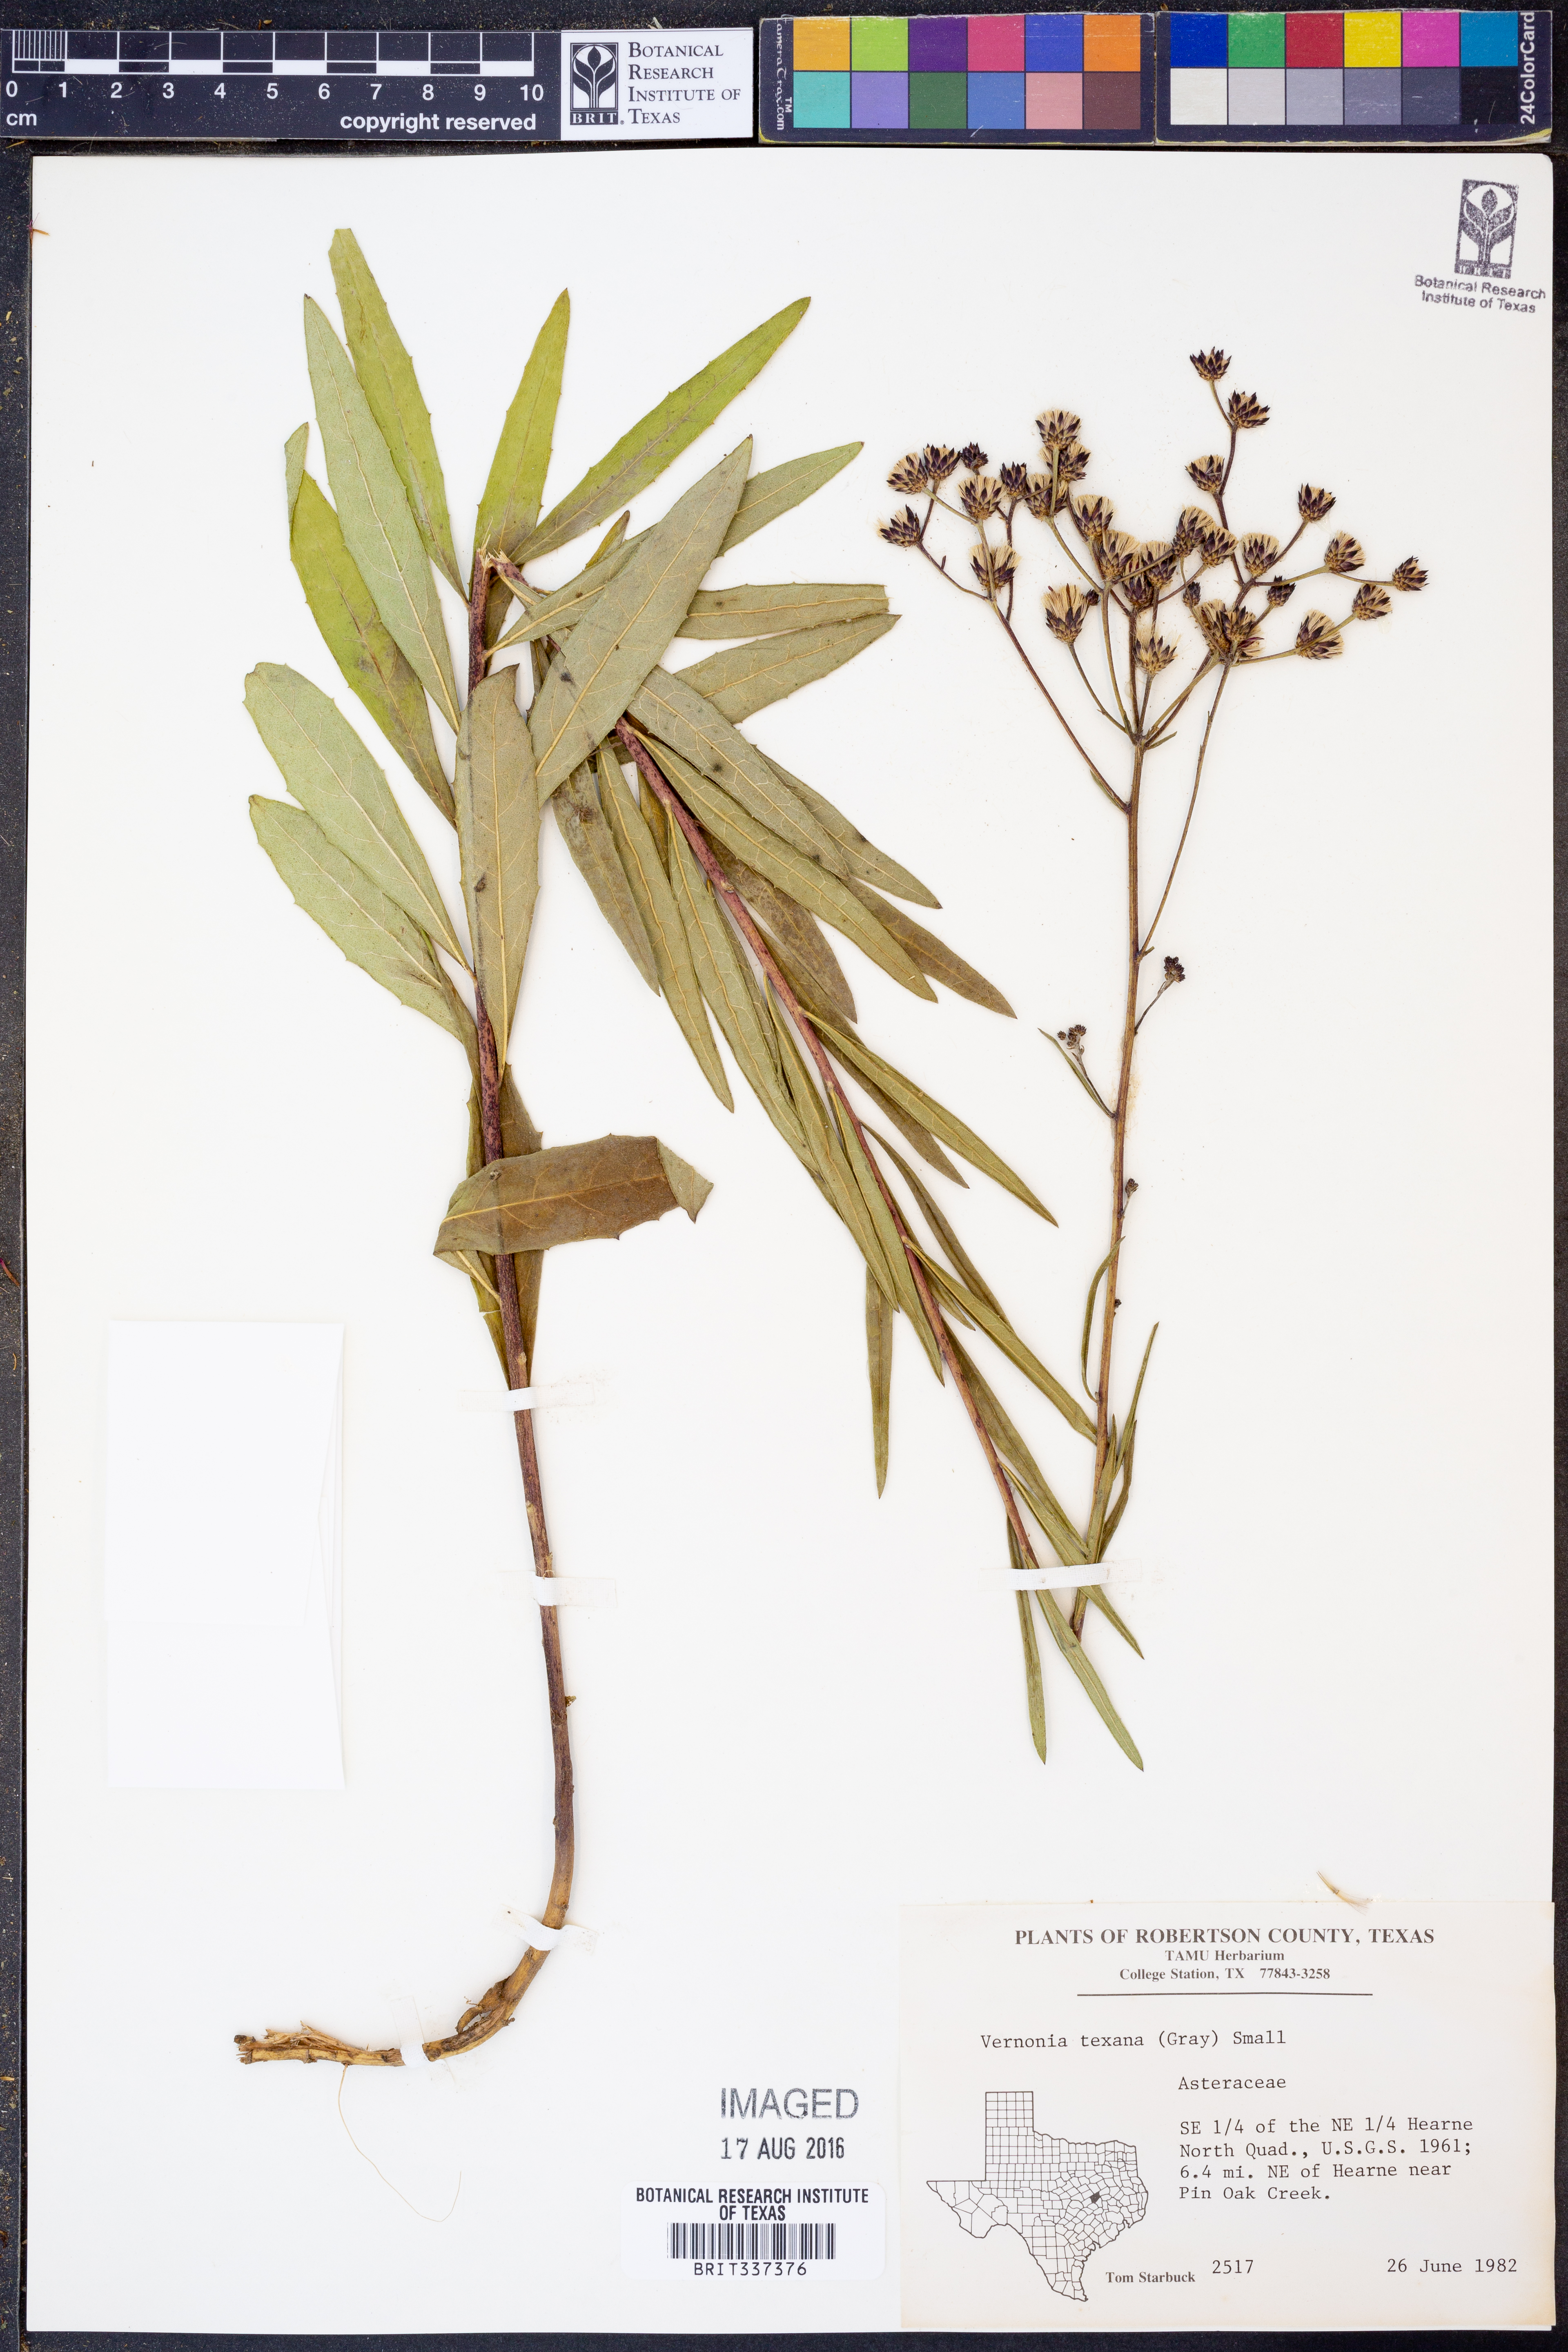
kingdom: Plantae
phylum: Tracheophyta
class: Magnoliopsida
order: Asterales
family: Asteraceae
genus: Vernonia
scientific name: Vernonia texana
